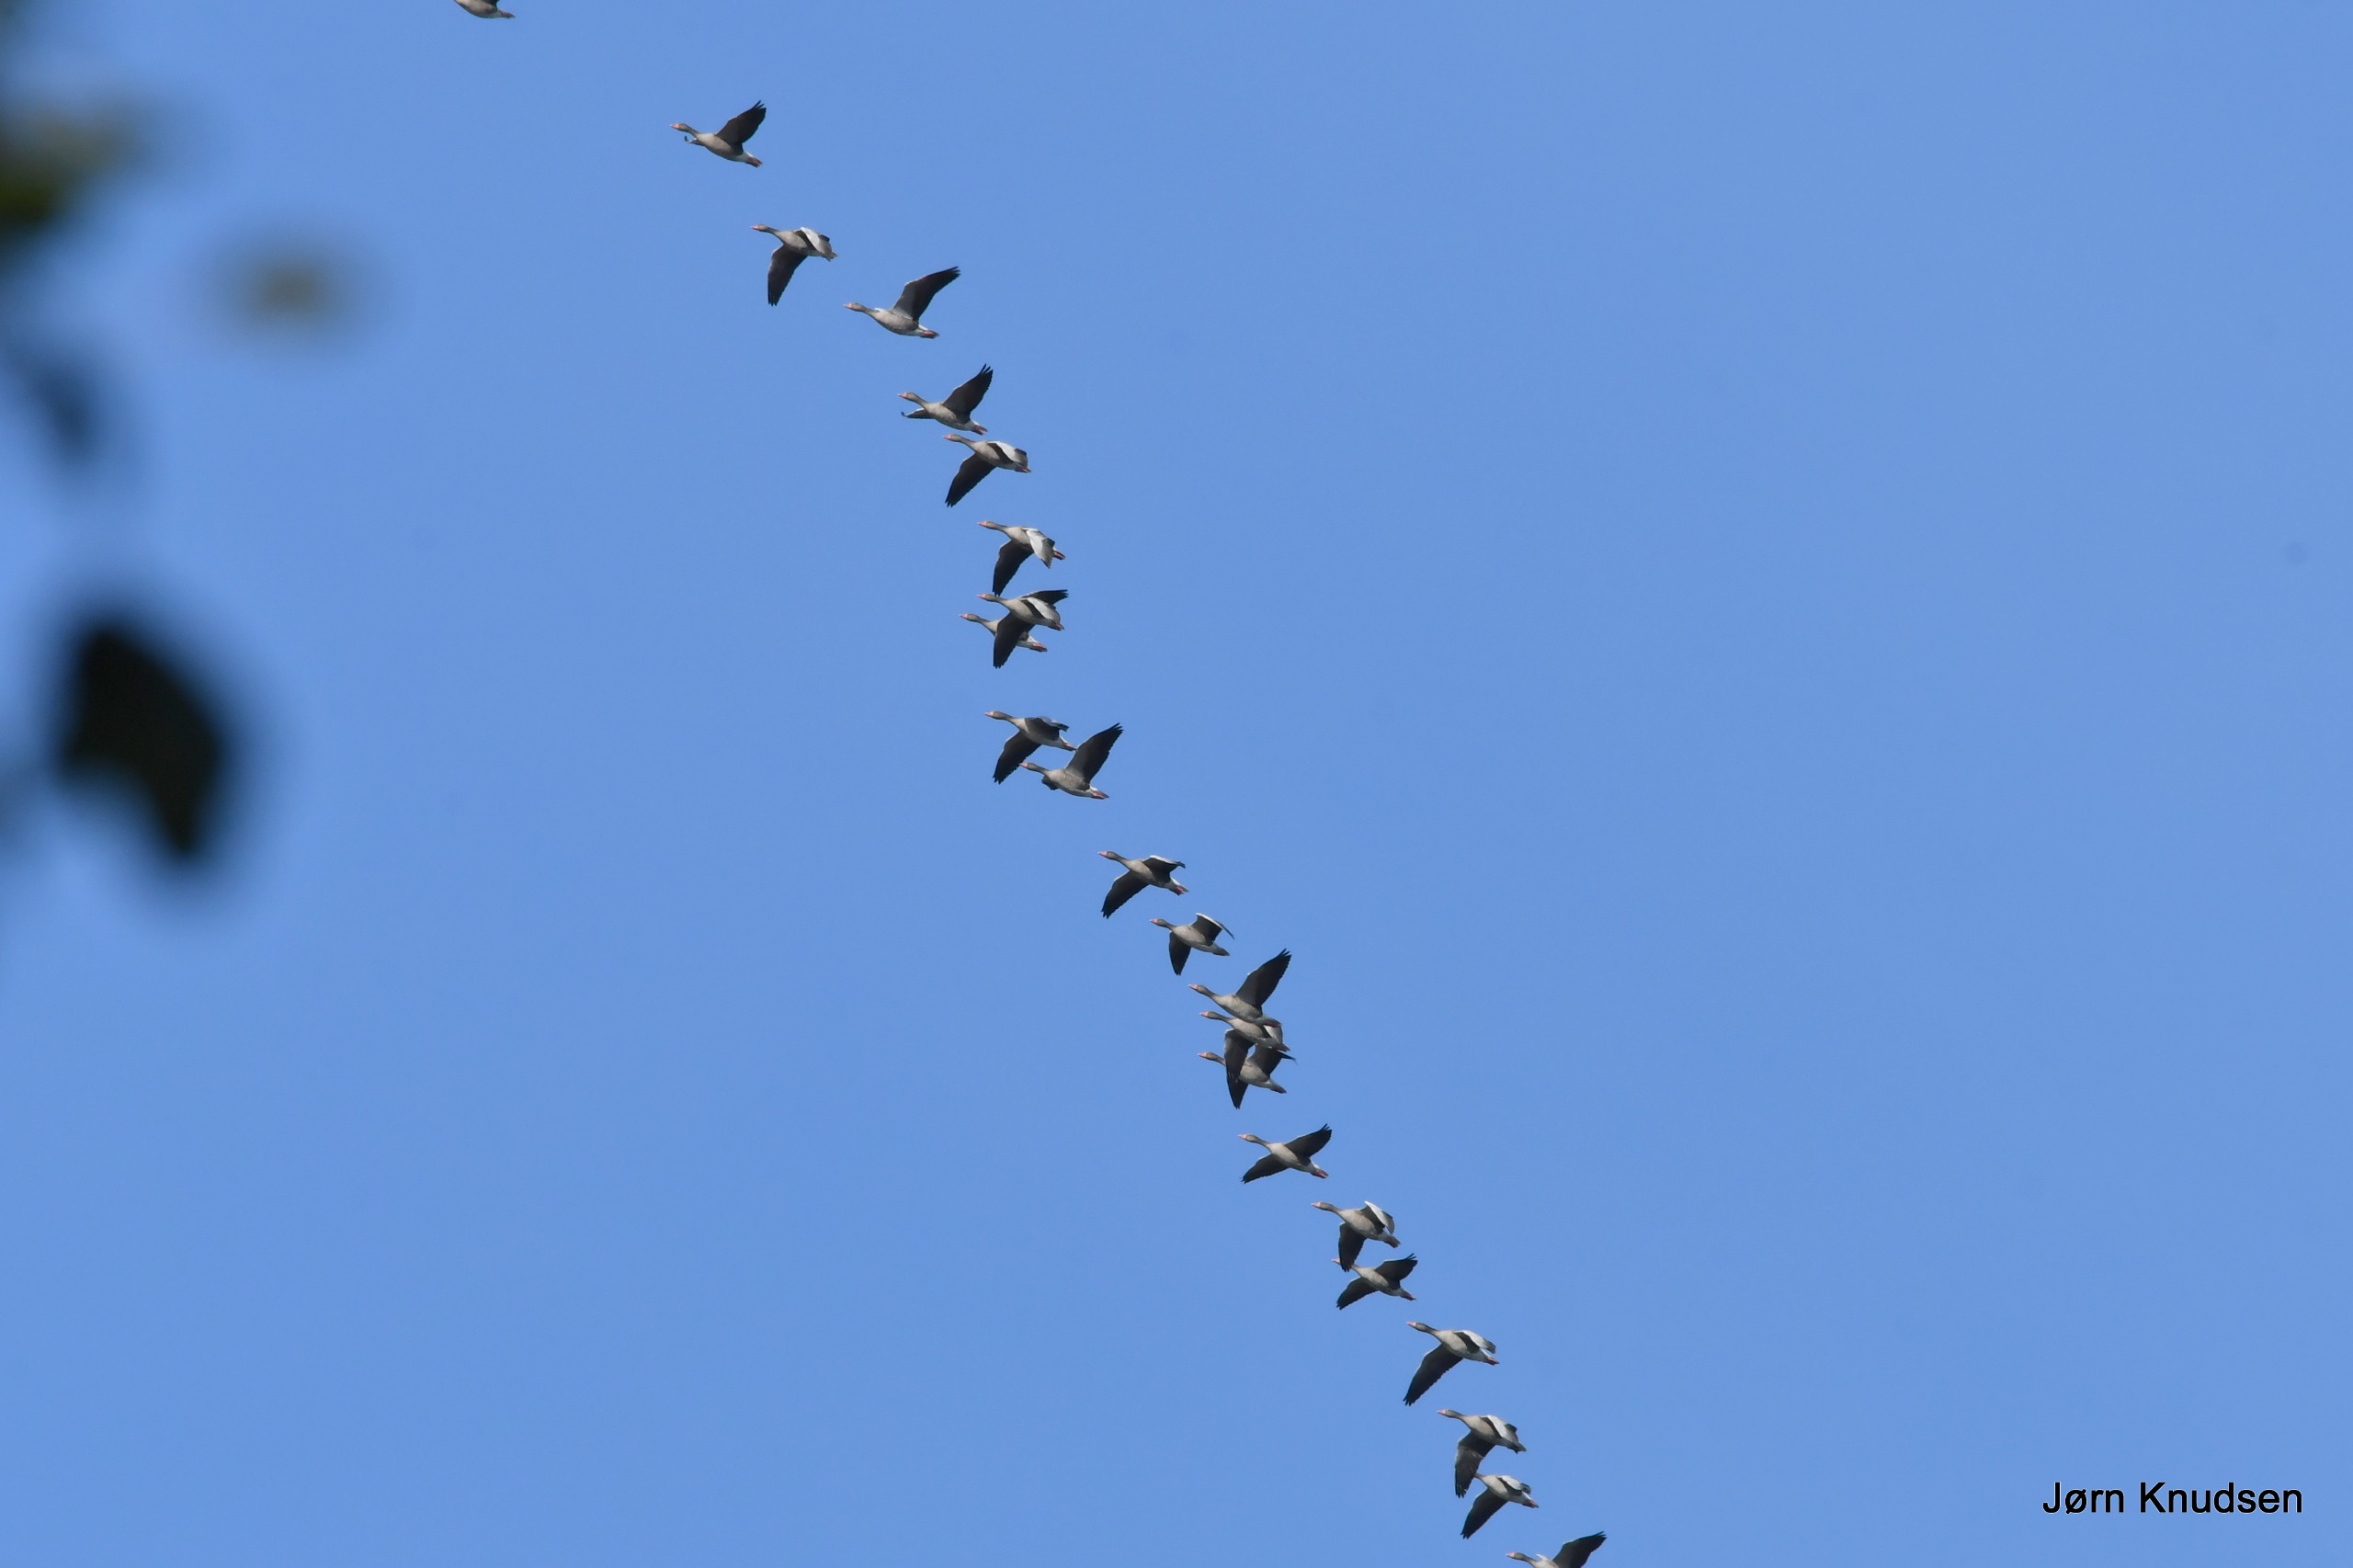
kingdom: Animalia
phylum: Chordata
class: Aves
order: Anseriformes
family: Anatidae
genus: Anser
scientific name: Anser anser
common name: Grågås
